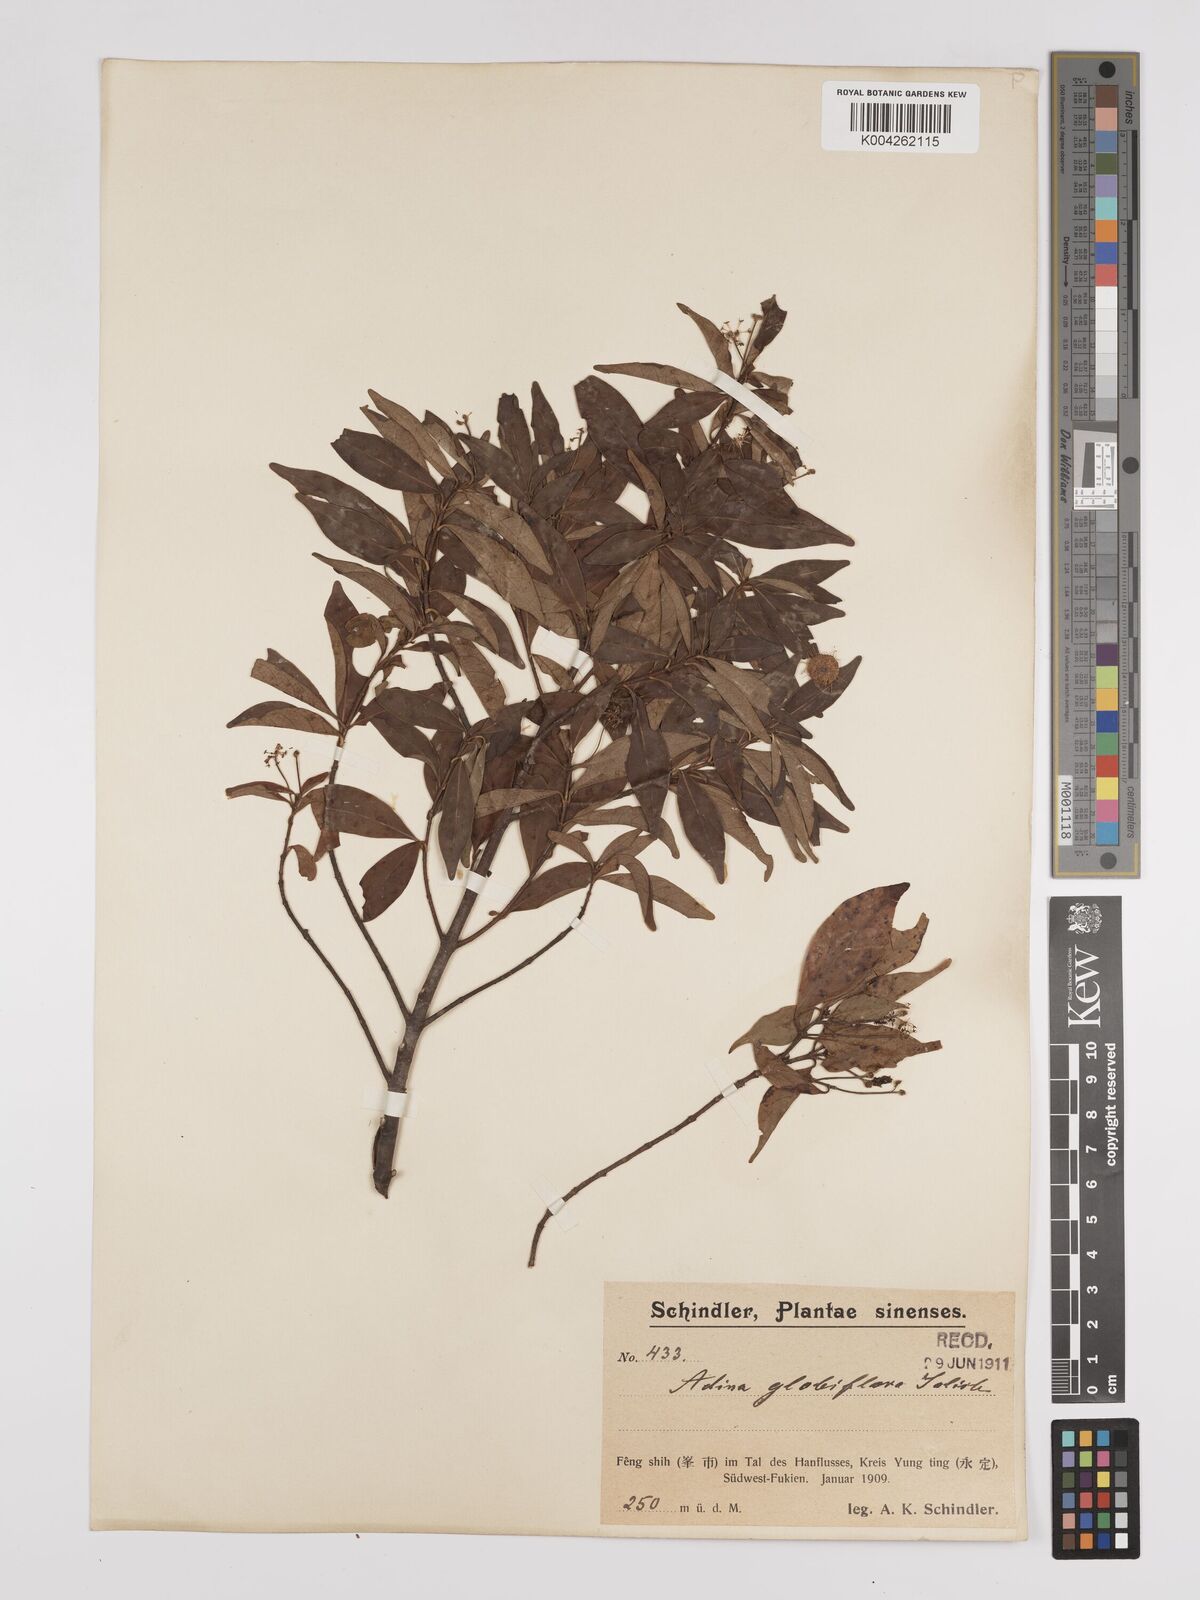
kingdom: Plantae
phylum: Tracheophyta
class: Magnoliopsida
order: Gentianales
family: Rubiaceae
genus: Adina
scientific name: Adina pilulifera
